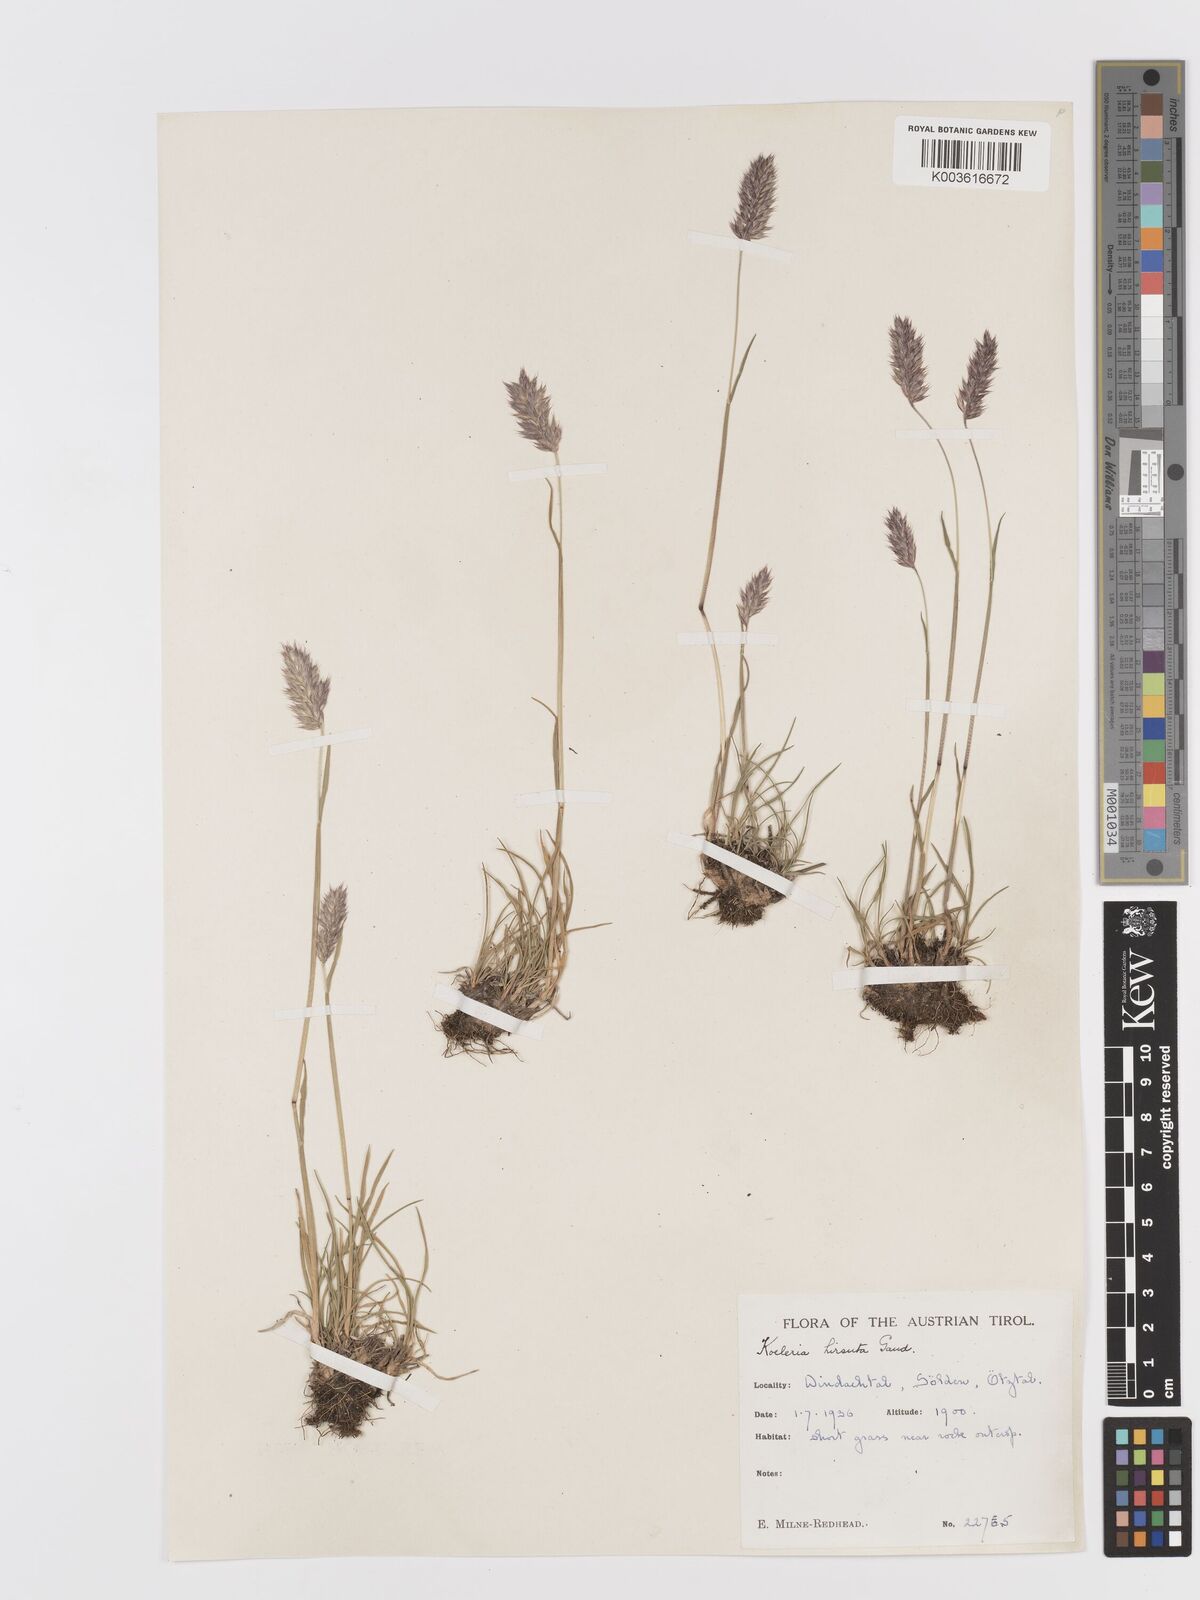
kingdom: Plantae
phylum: Tracheophyta
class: Liliopsida
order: Poales
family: Poaceae
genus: Koeleria
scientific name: Koeleria hirsuta
